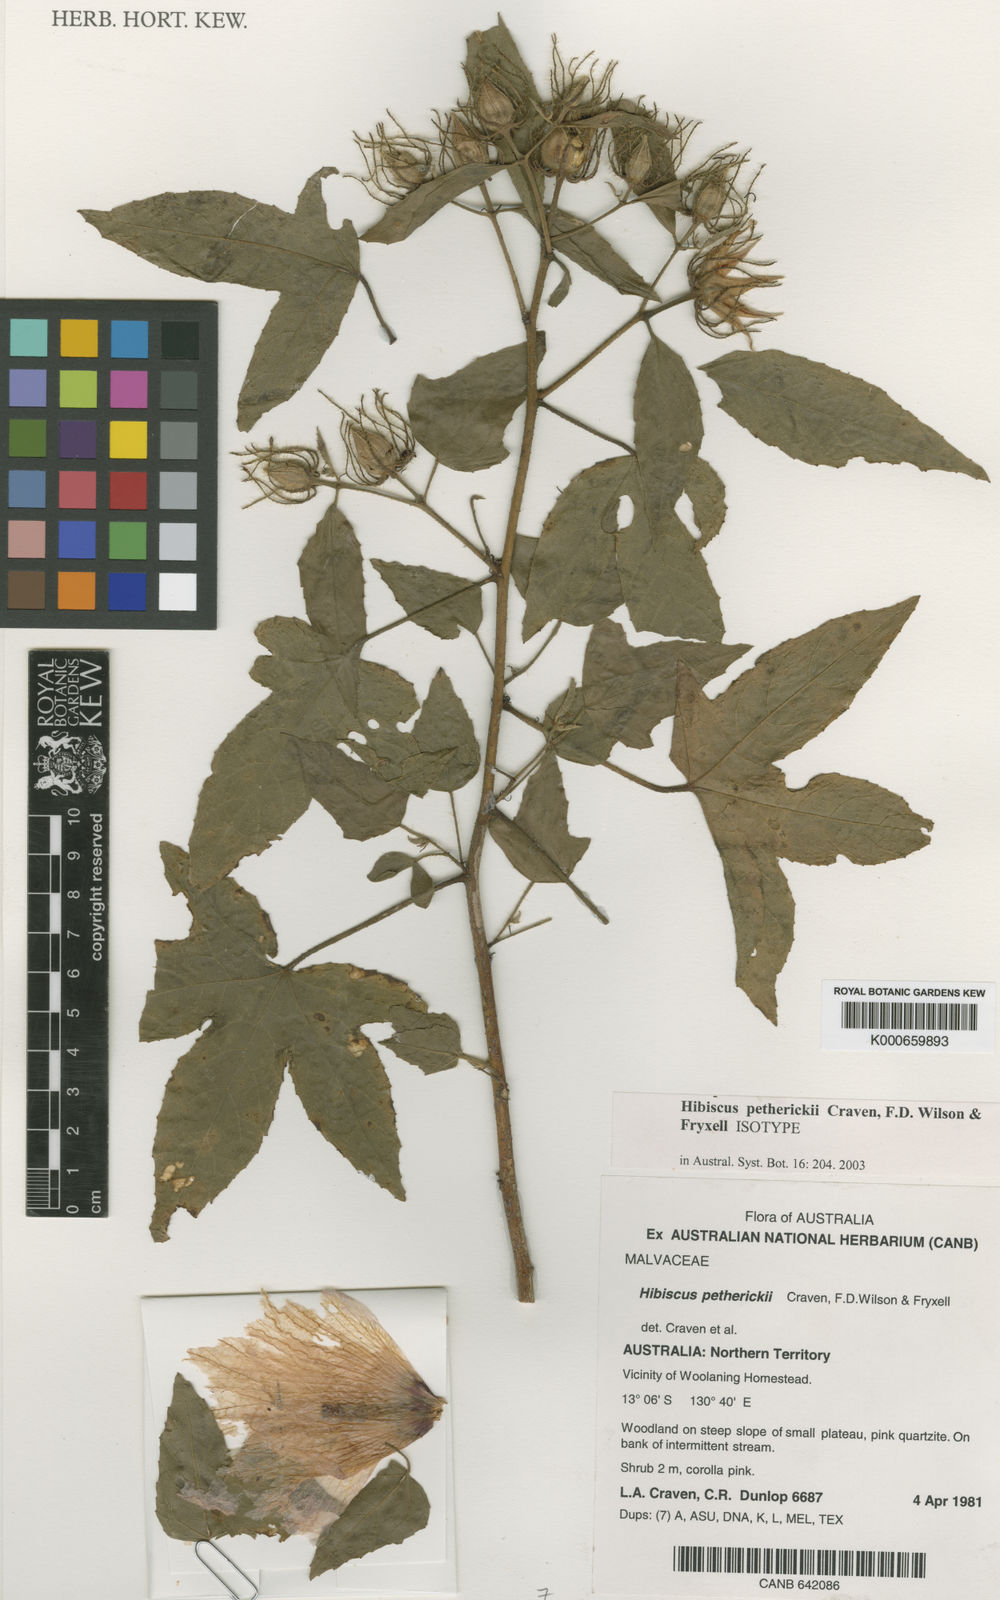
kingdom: Plantae
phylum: Tracheophyta
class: Magnoliopsida
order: Malvales
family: Malvaceae
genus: Hibiscus
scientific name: Hibiscus petherickii
